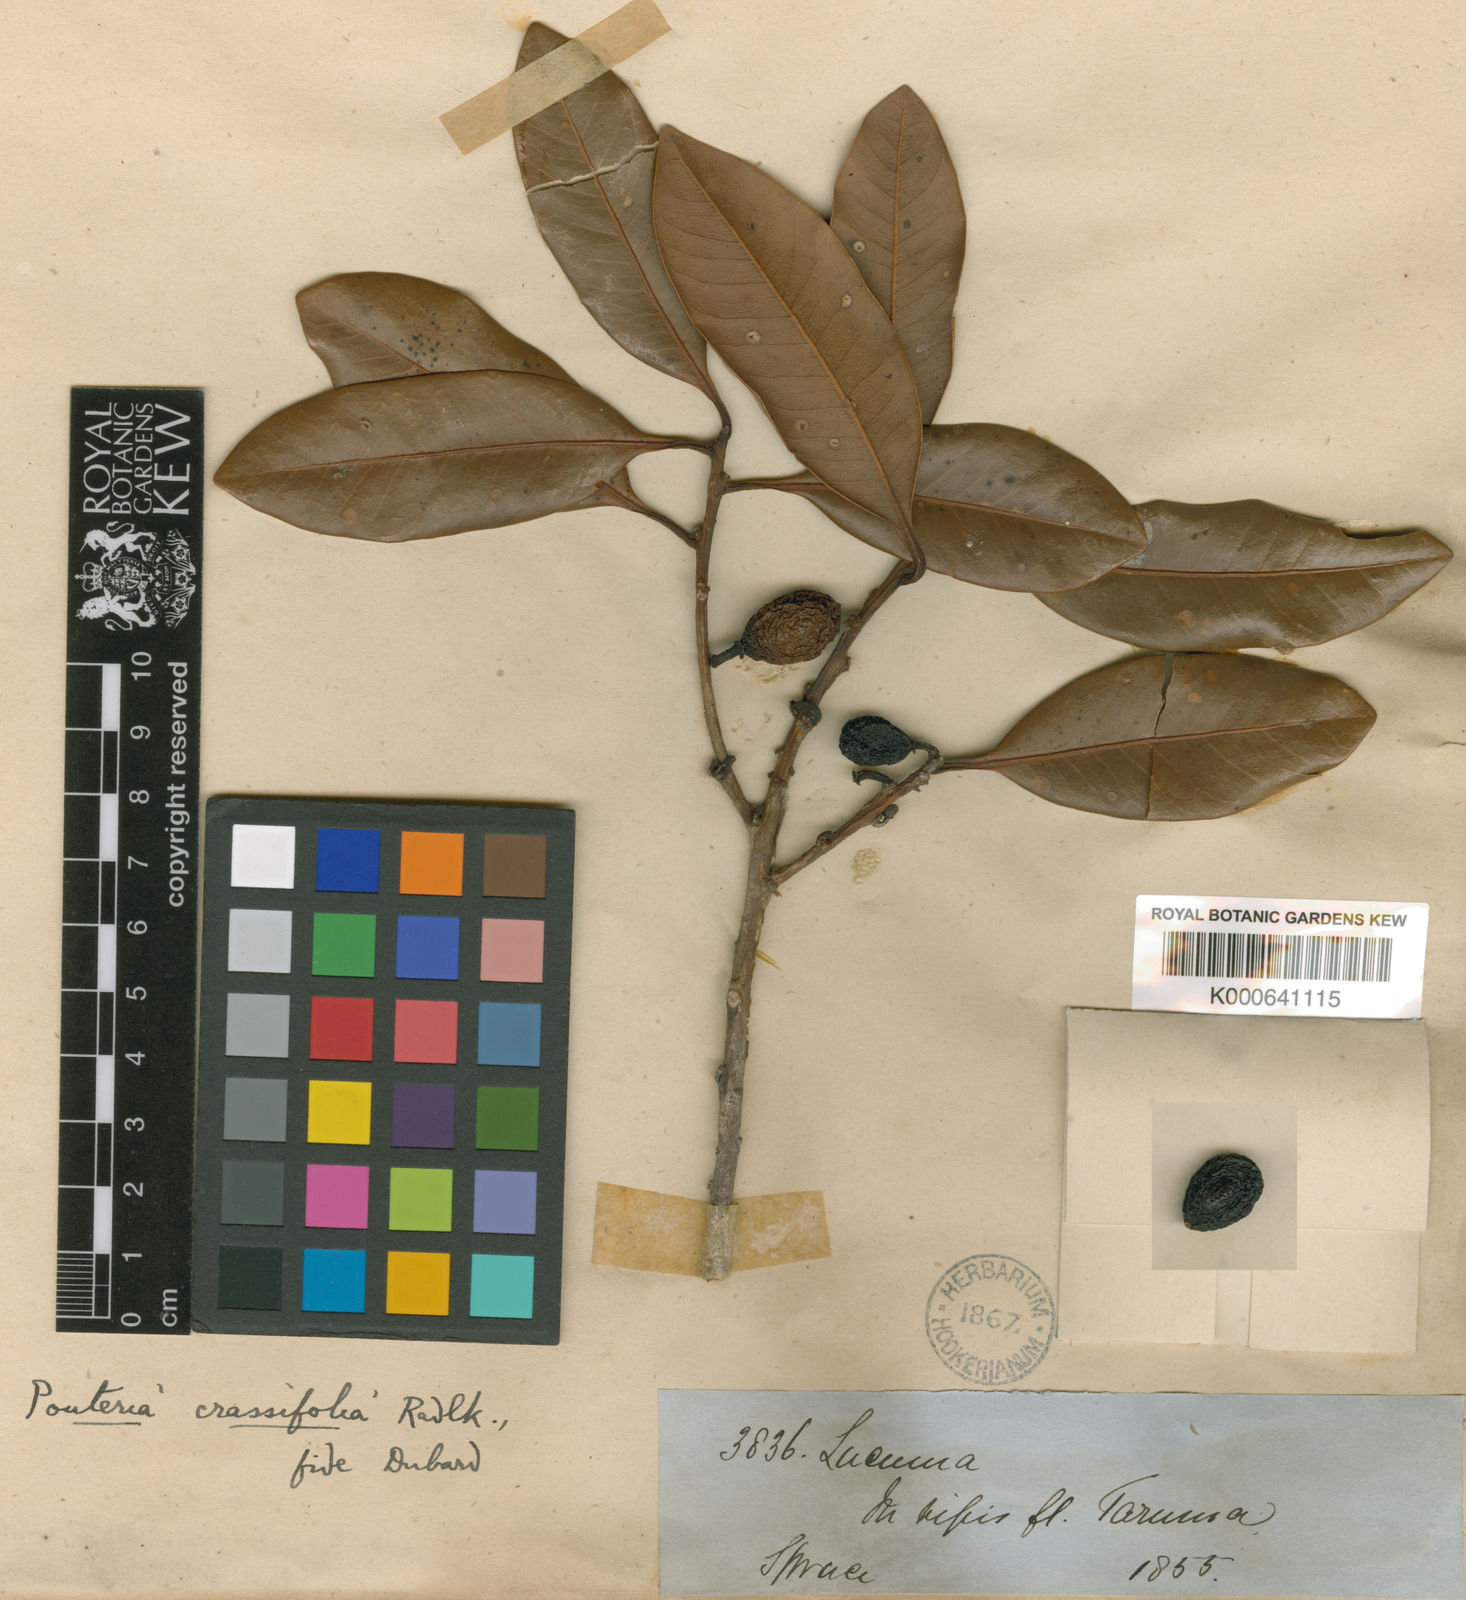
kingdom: Plantae
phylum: Tracheophyta
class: Magnoliopsida
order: Ericales
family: Sapotaceae
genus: Pouteria
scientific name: Pouteria pachyphylla
